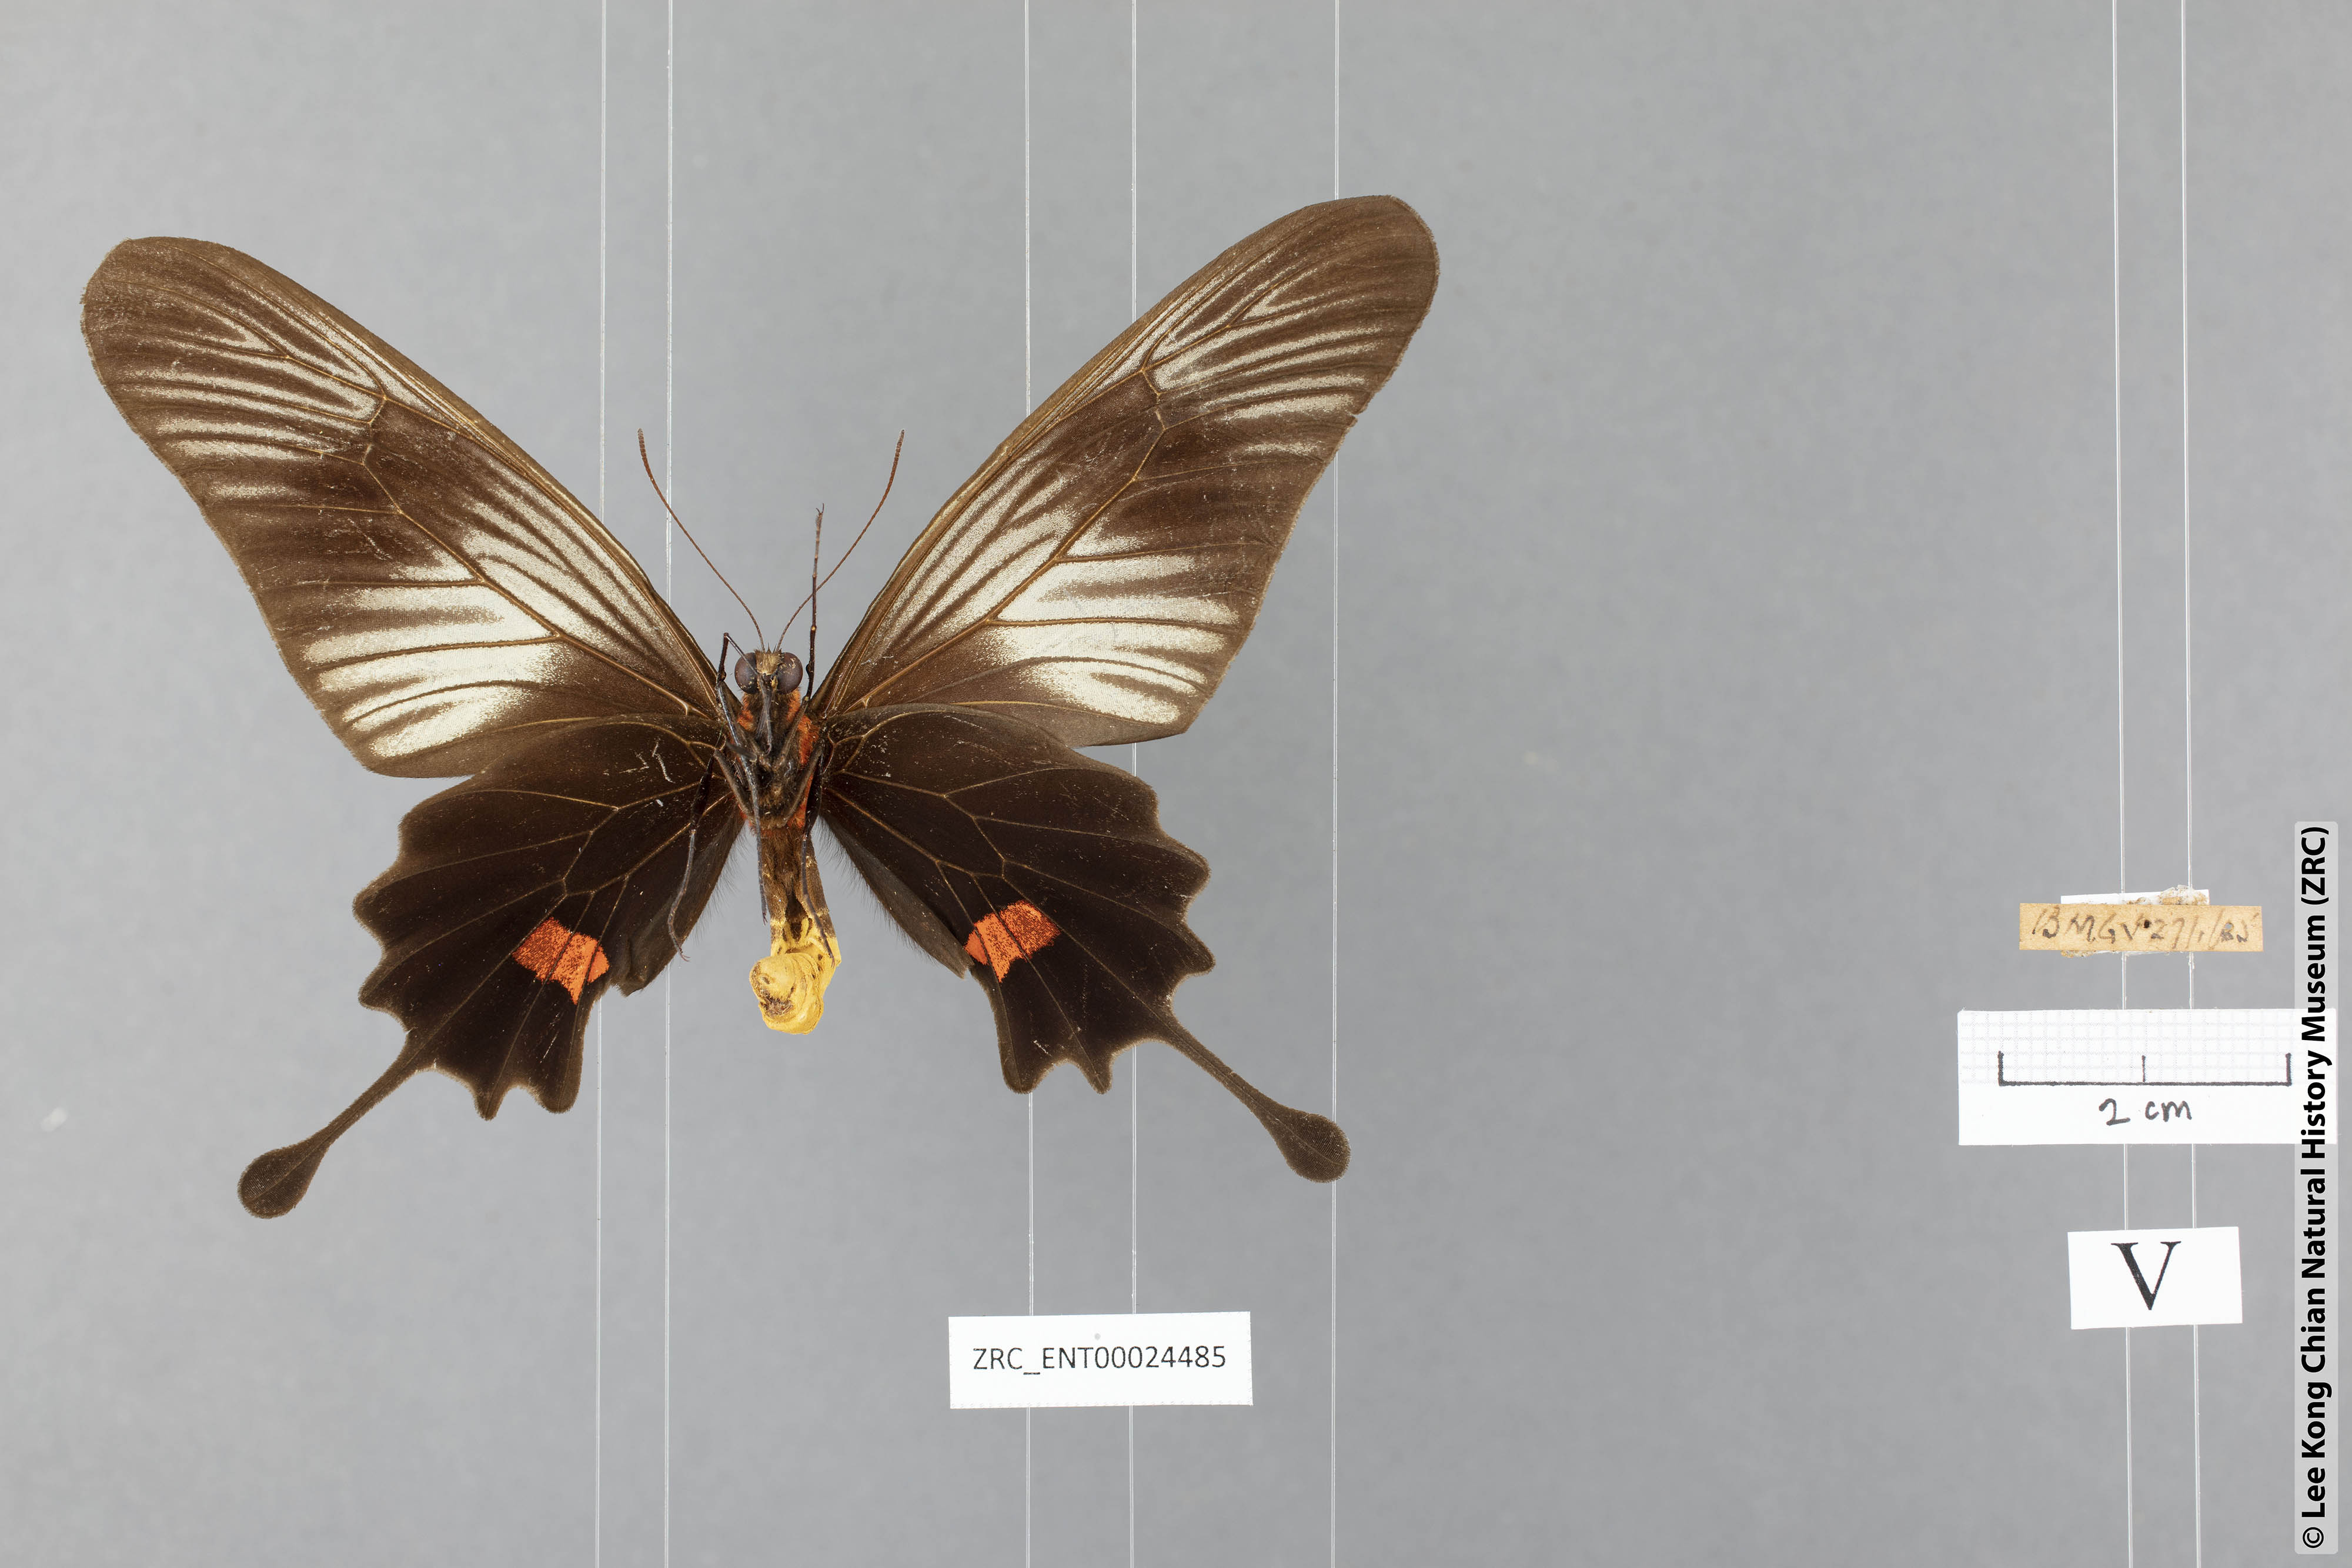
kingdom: Animalia
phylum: Arthropoda
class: Insecta
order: Lepidoptera
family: Papilionidae
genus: Losaria
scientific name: Losaria neptunus
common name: Yellow-bodied clubtail
